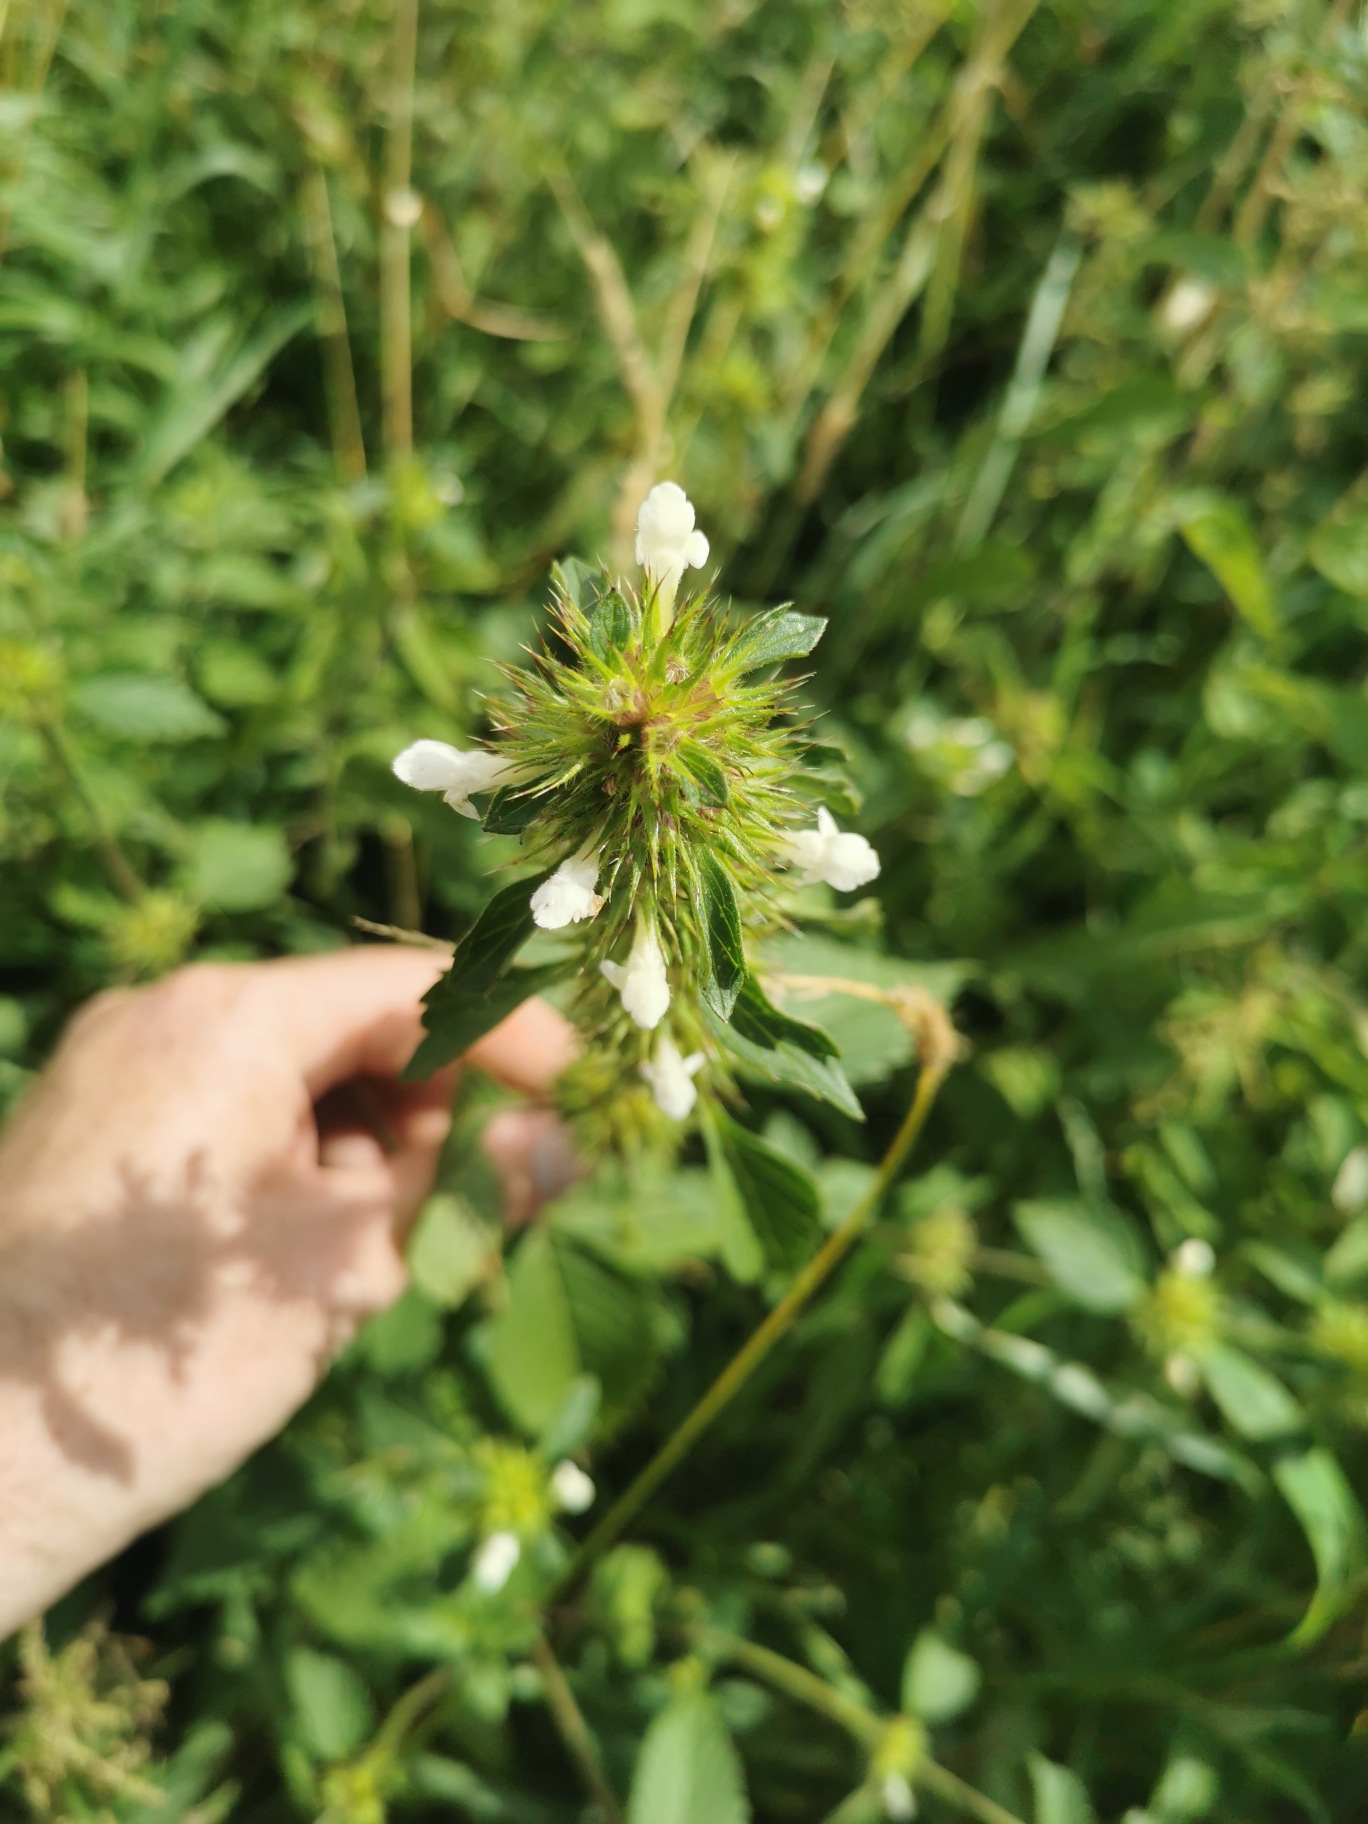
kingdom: Plantae
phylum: Tracheophyta
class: Magnoliopsida
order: Lamiales
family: Lamiaceae
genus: Galeopsis
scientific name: Galeopsis
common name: Hanekroslægten
